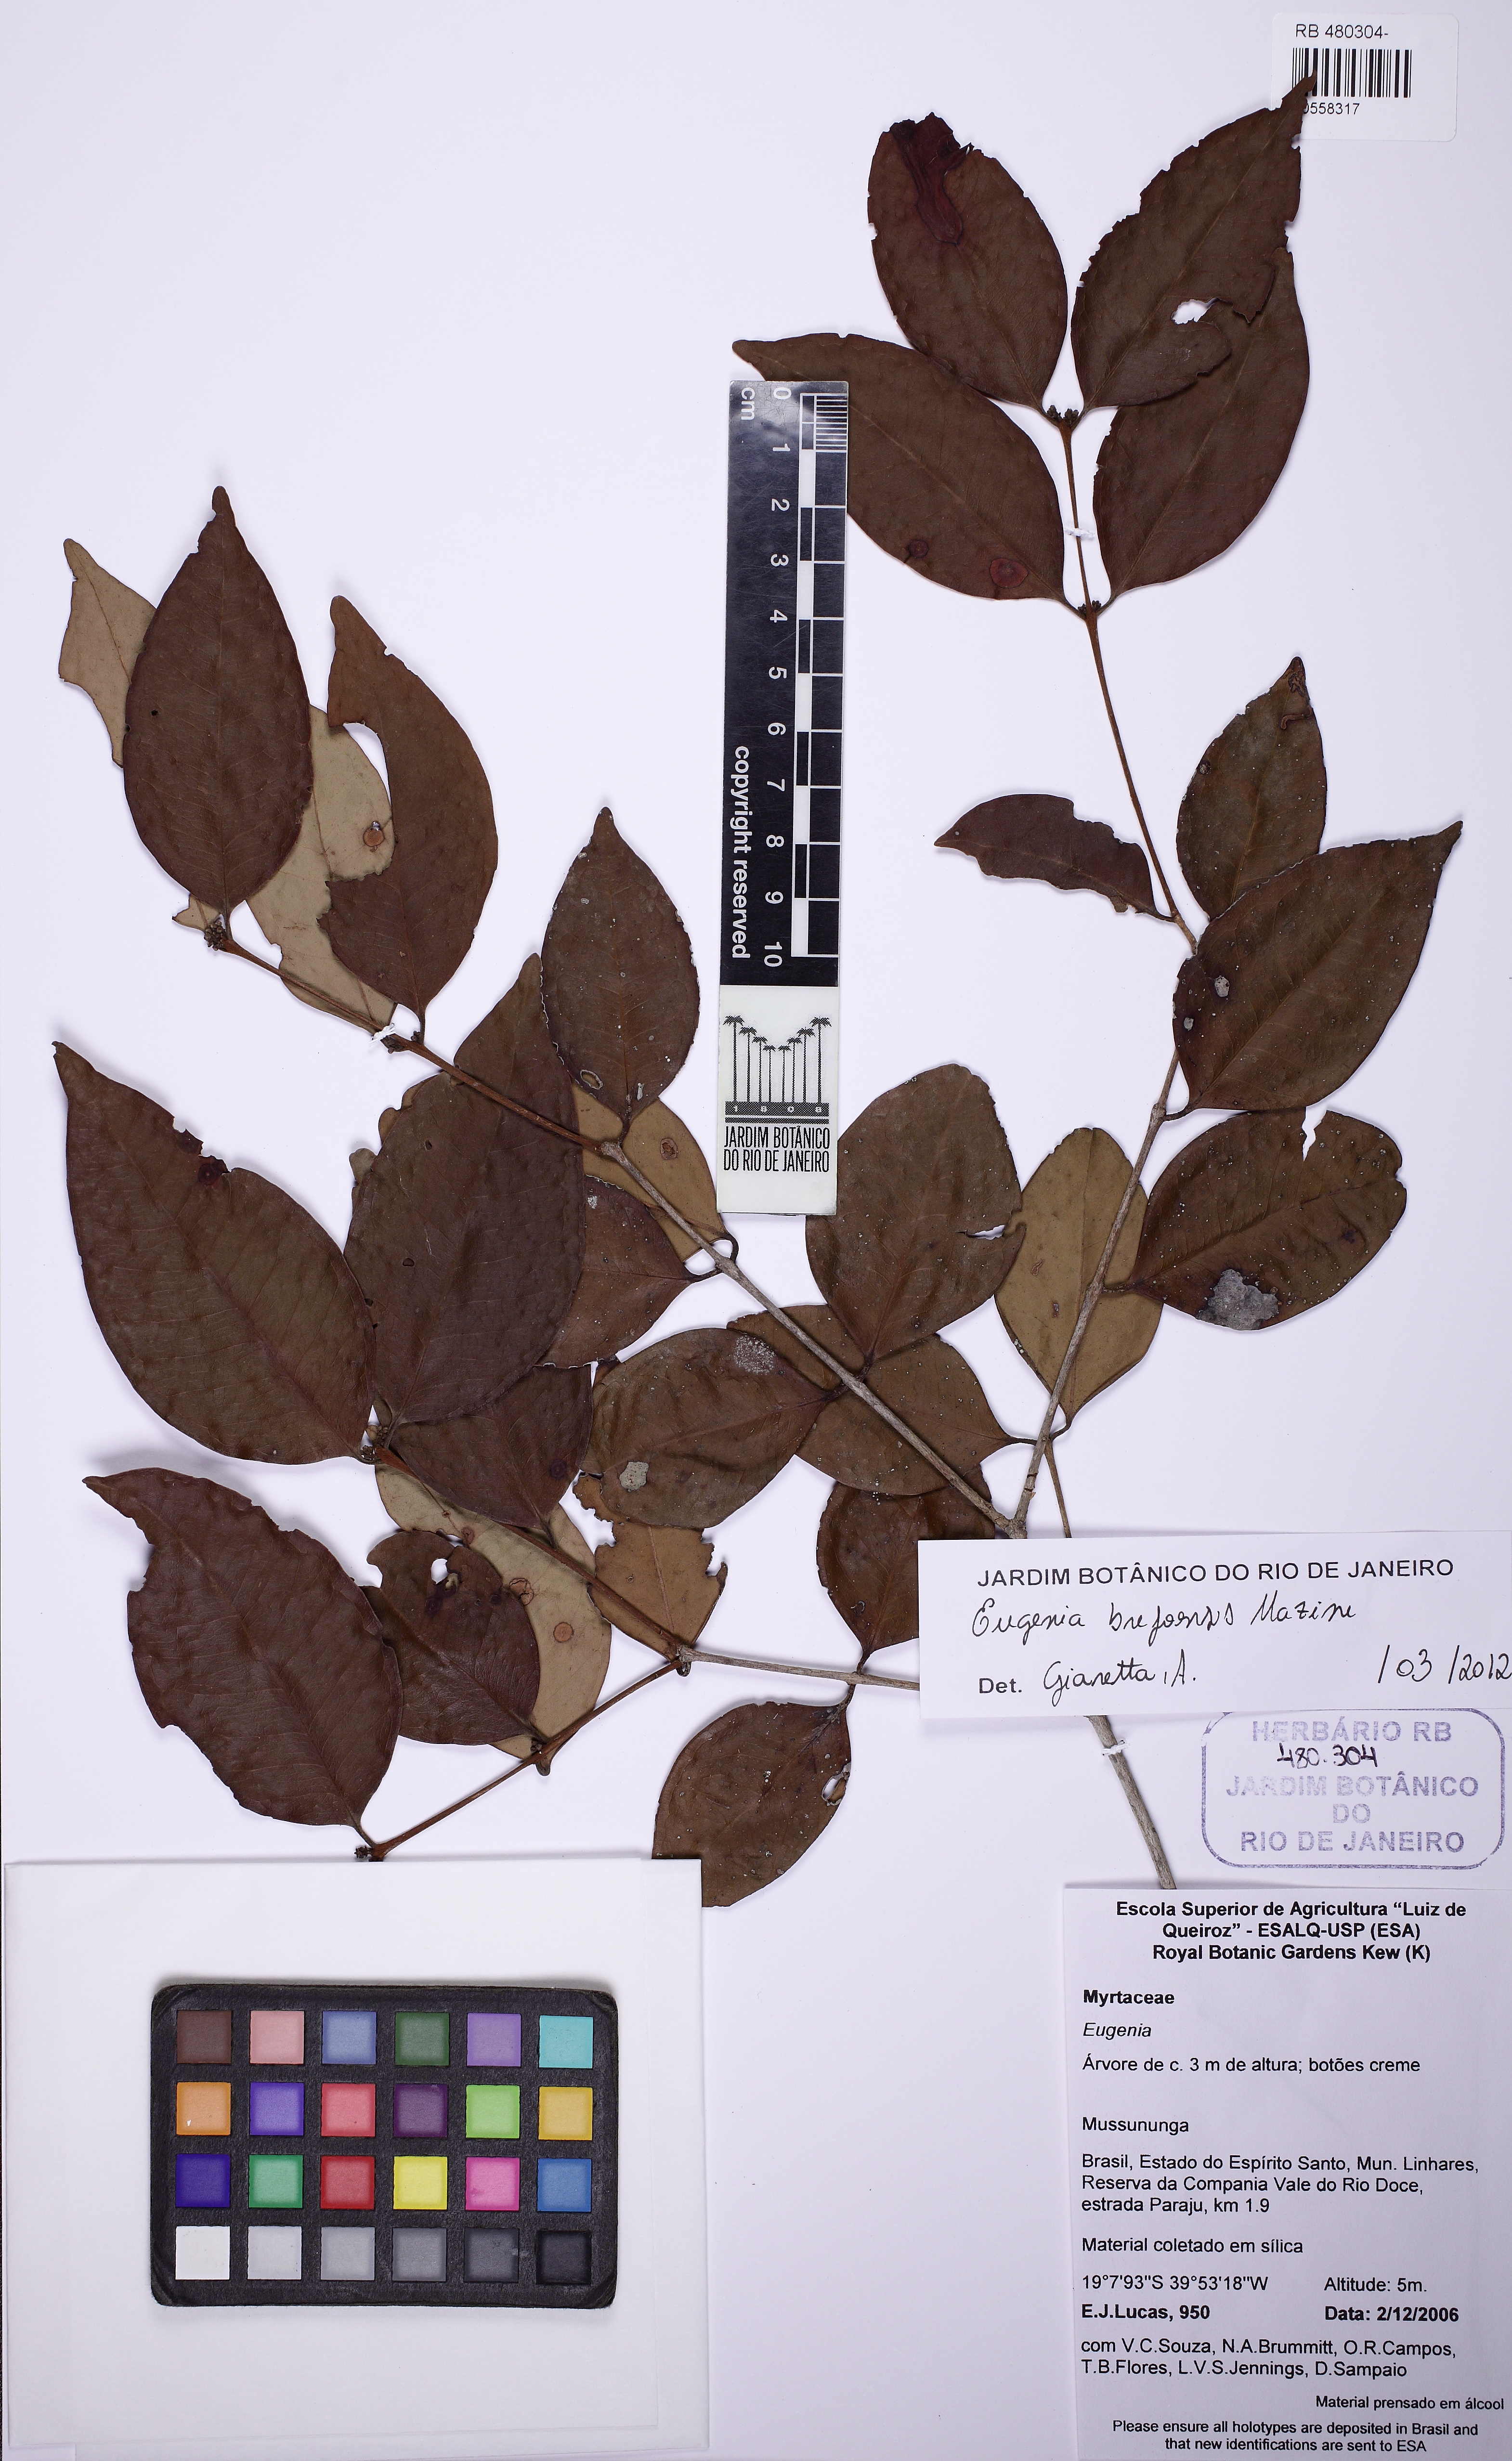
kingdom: Plantae
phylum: Tracheophyta
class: Magnoliopsida
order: Myrtales
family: Myrtaceae
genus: Eugenia
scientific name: Eugenia brejoensis
